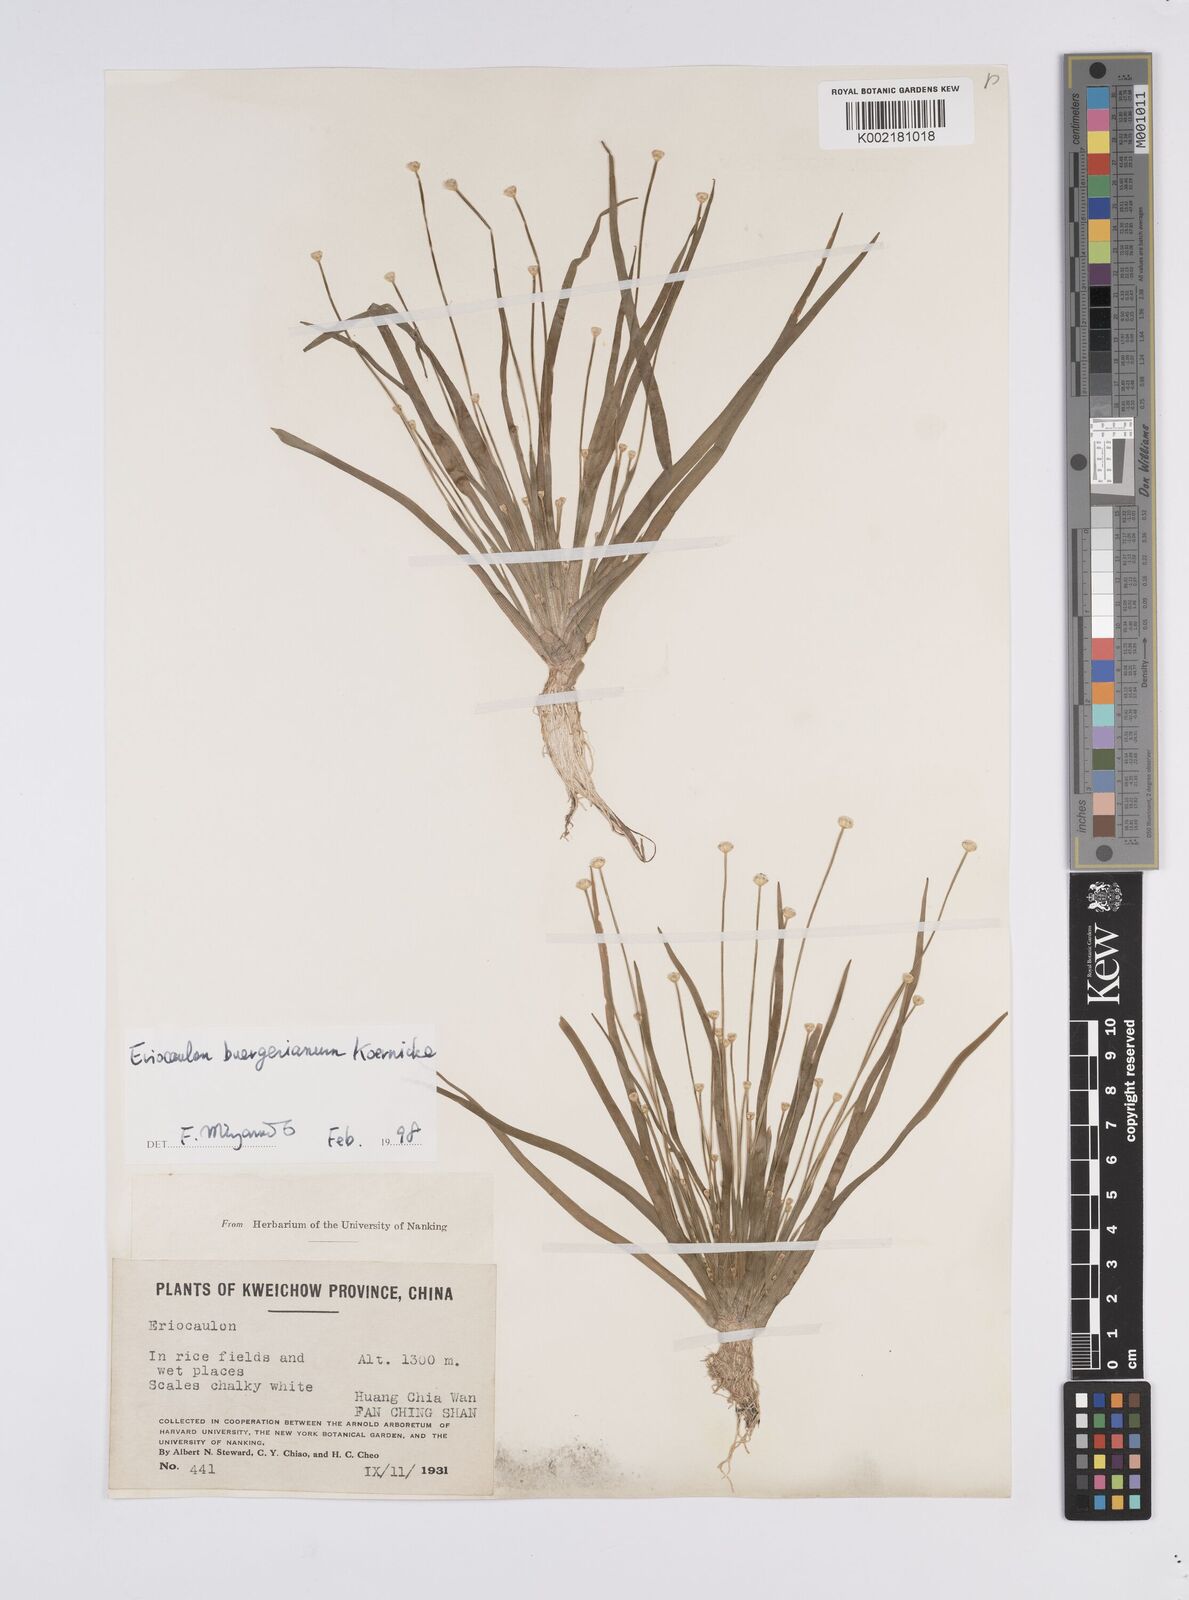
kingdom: Plantae
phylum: Tracheophyta
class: Liliopsida
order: Poales
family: Eriocaulaceae
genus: Eriocaulon
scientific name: Eriocaulon buergerianum
